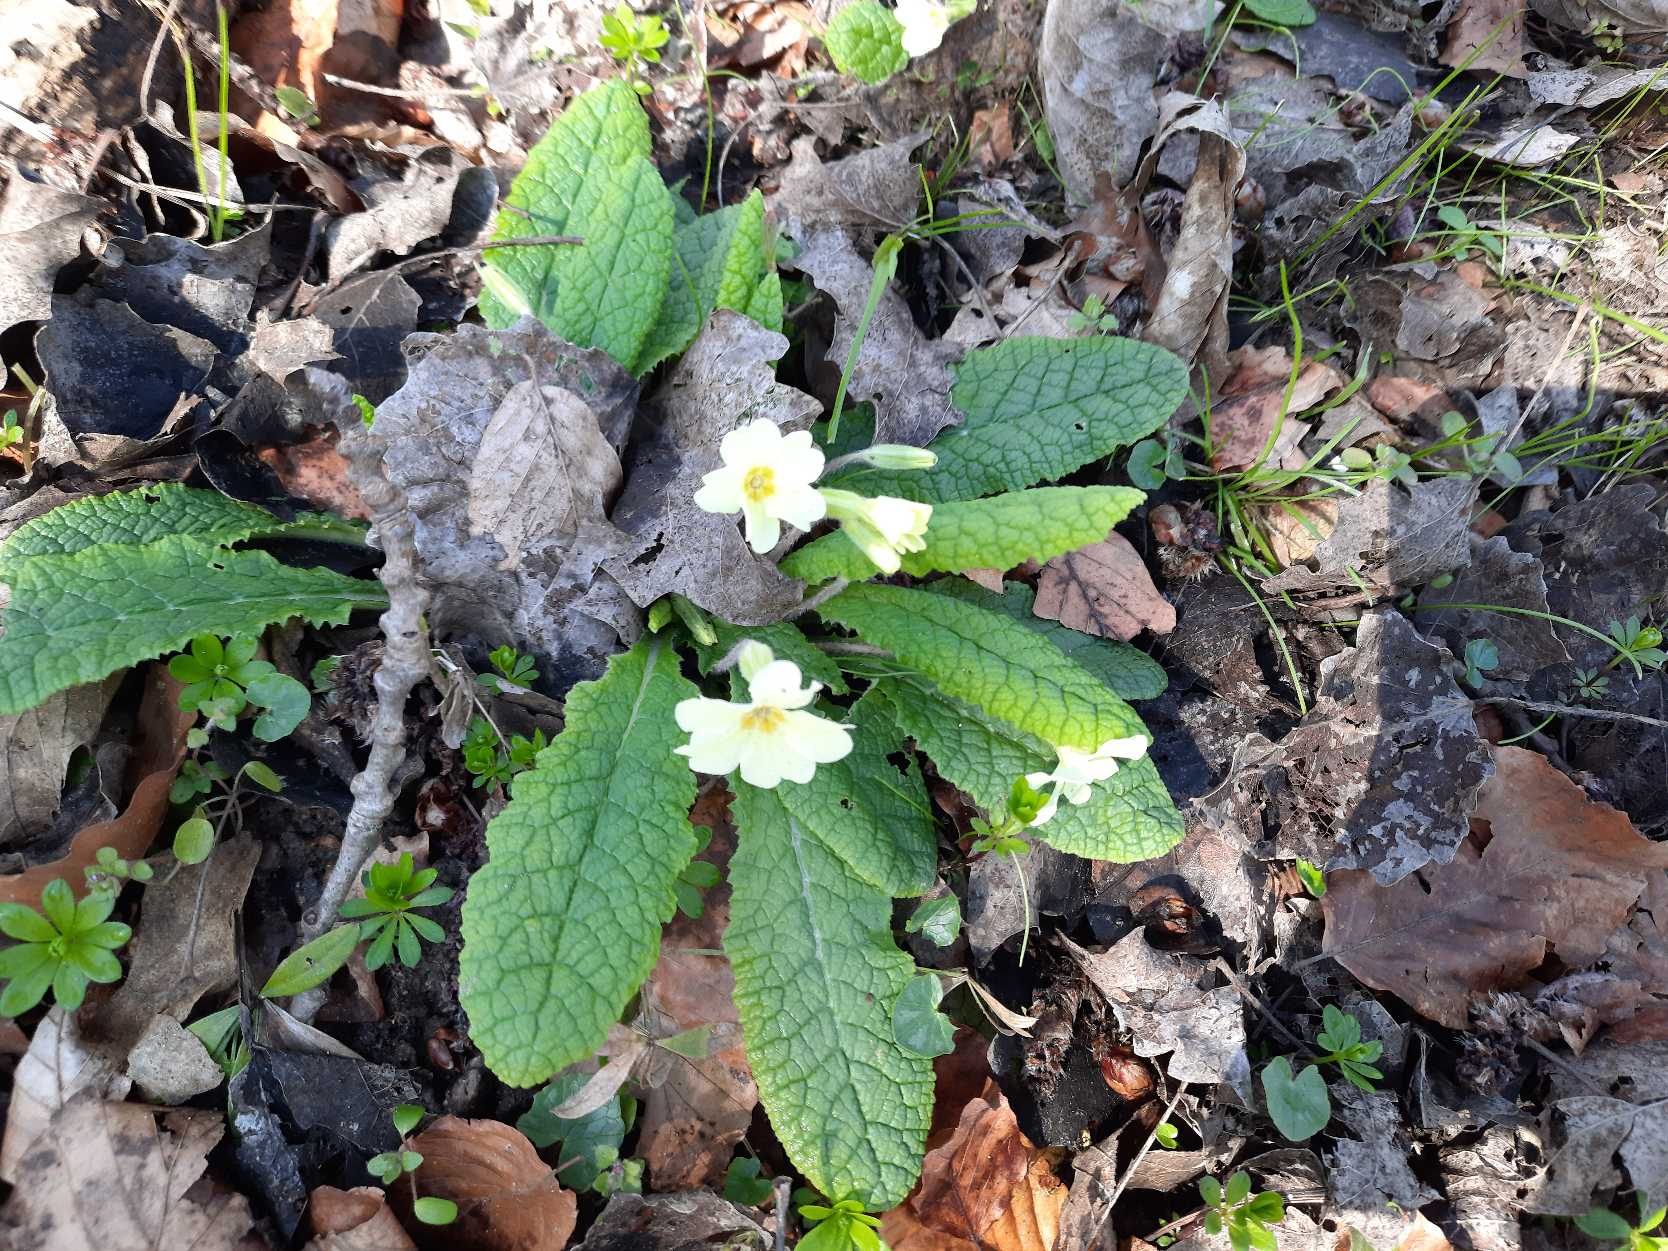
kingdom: Plantae
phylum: Tracheophyta
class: Magnoliopsida
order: Ericales
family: Primulaceae
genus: Primula
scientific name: Primula vulgaris
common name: Storblomstret kodriver
